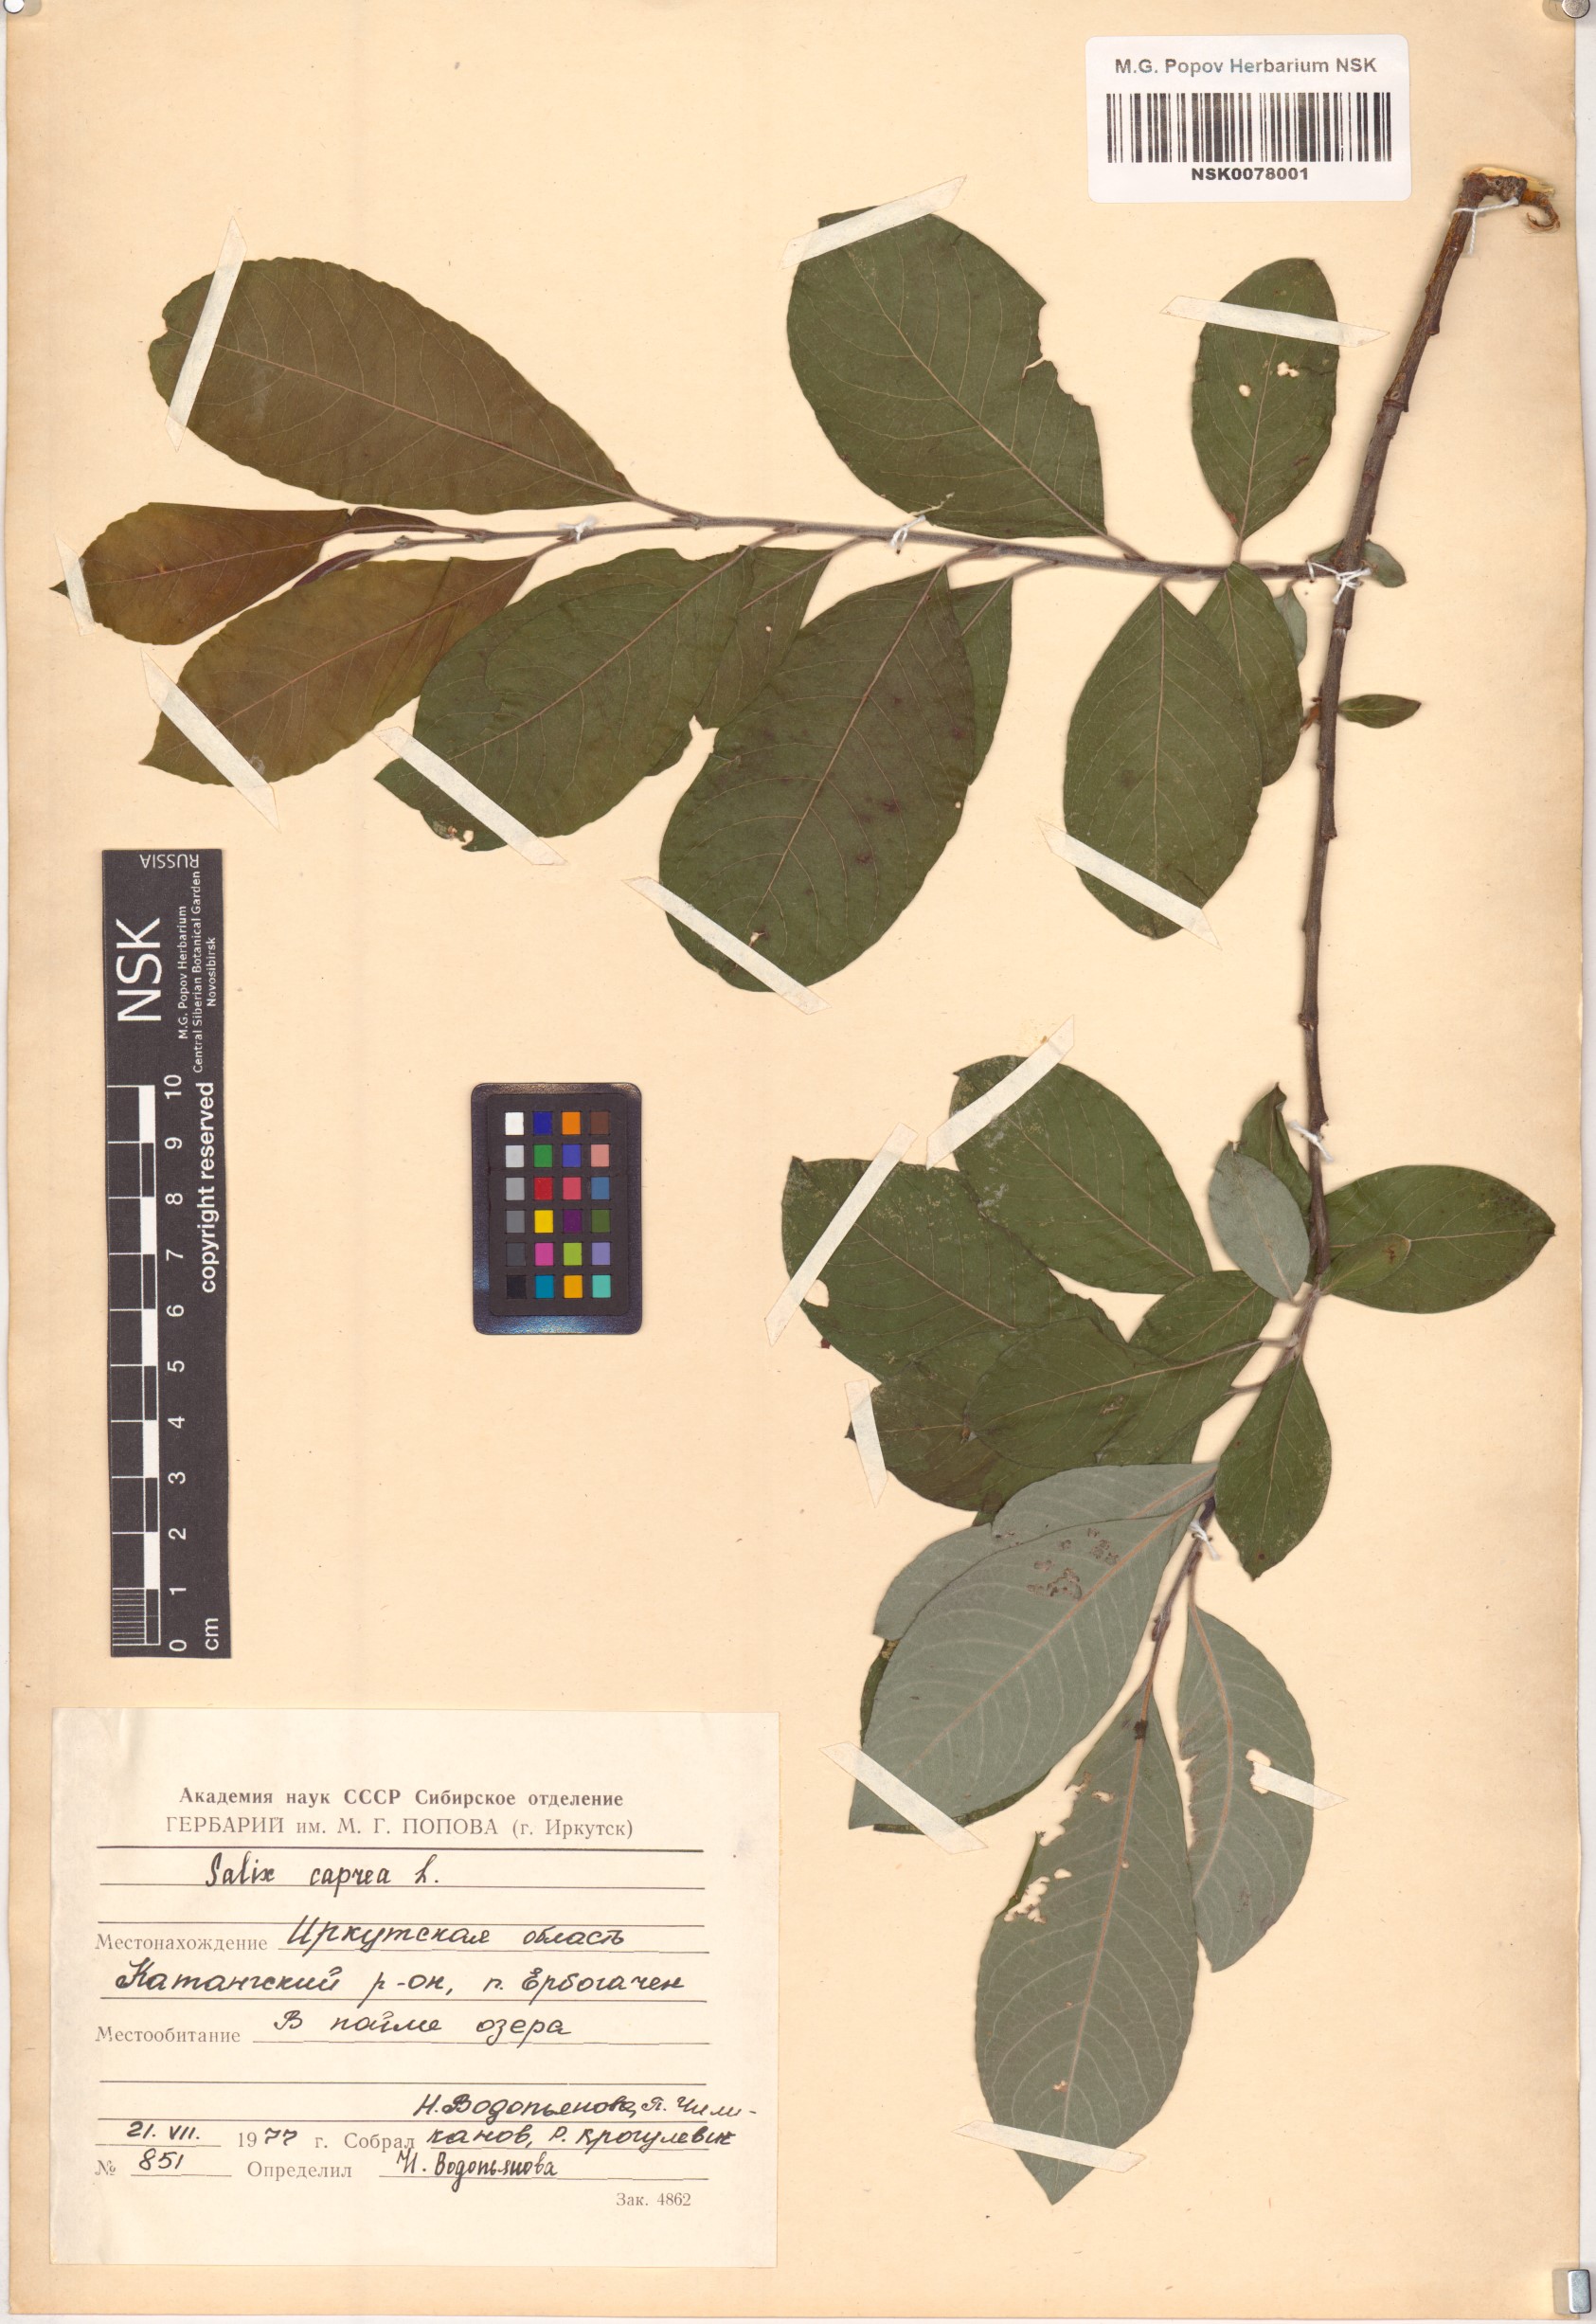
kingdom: Plantae
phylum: Tracheophyta
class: Magnoliopsida
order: Malpighiales
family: Salicaceae
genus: Salix
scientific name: Salix caprea
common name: Goat willow
